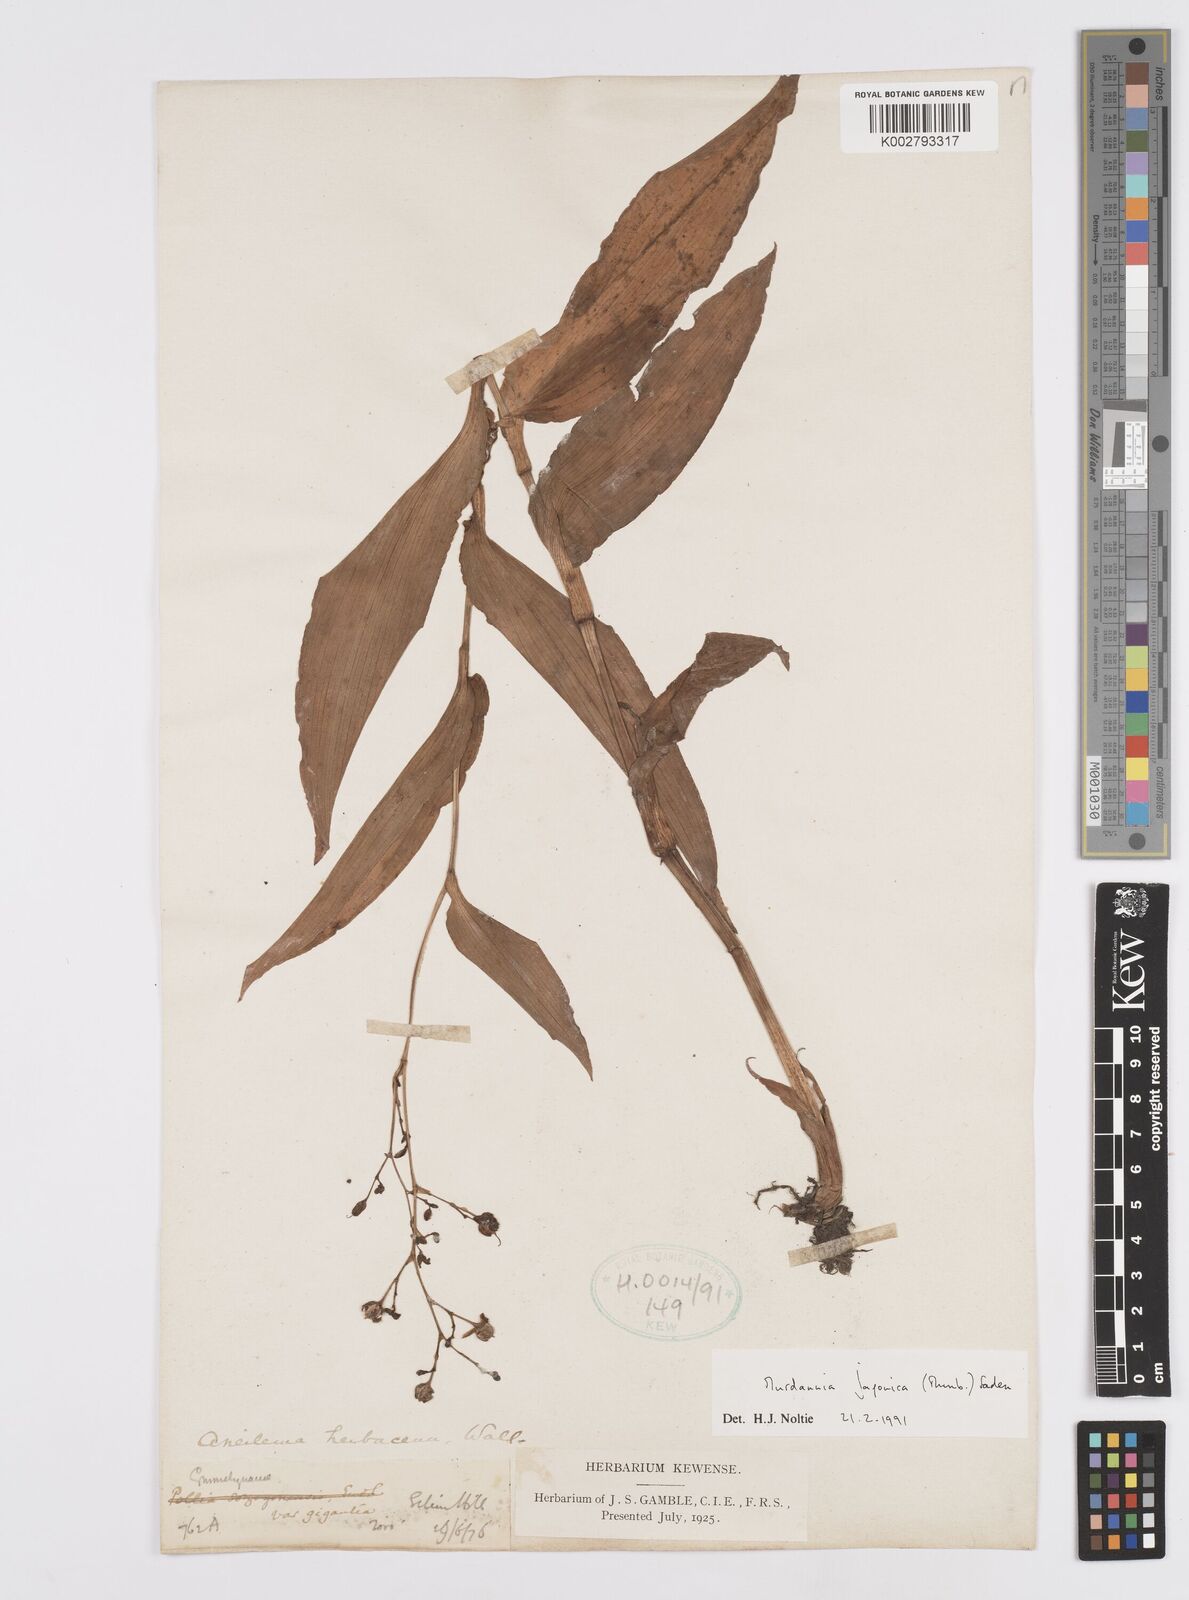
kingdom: Plantae
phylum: Tracheophyta
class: Liliopsida
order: Commelinales
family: Commelinaceae
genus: Murdannia
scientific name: Murdannia japonica
